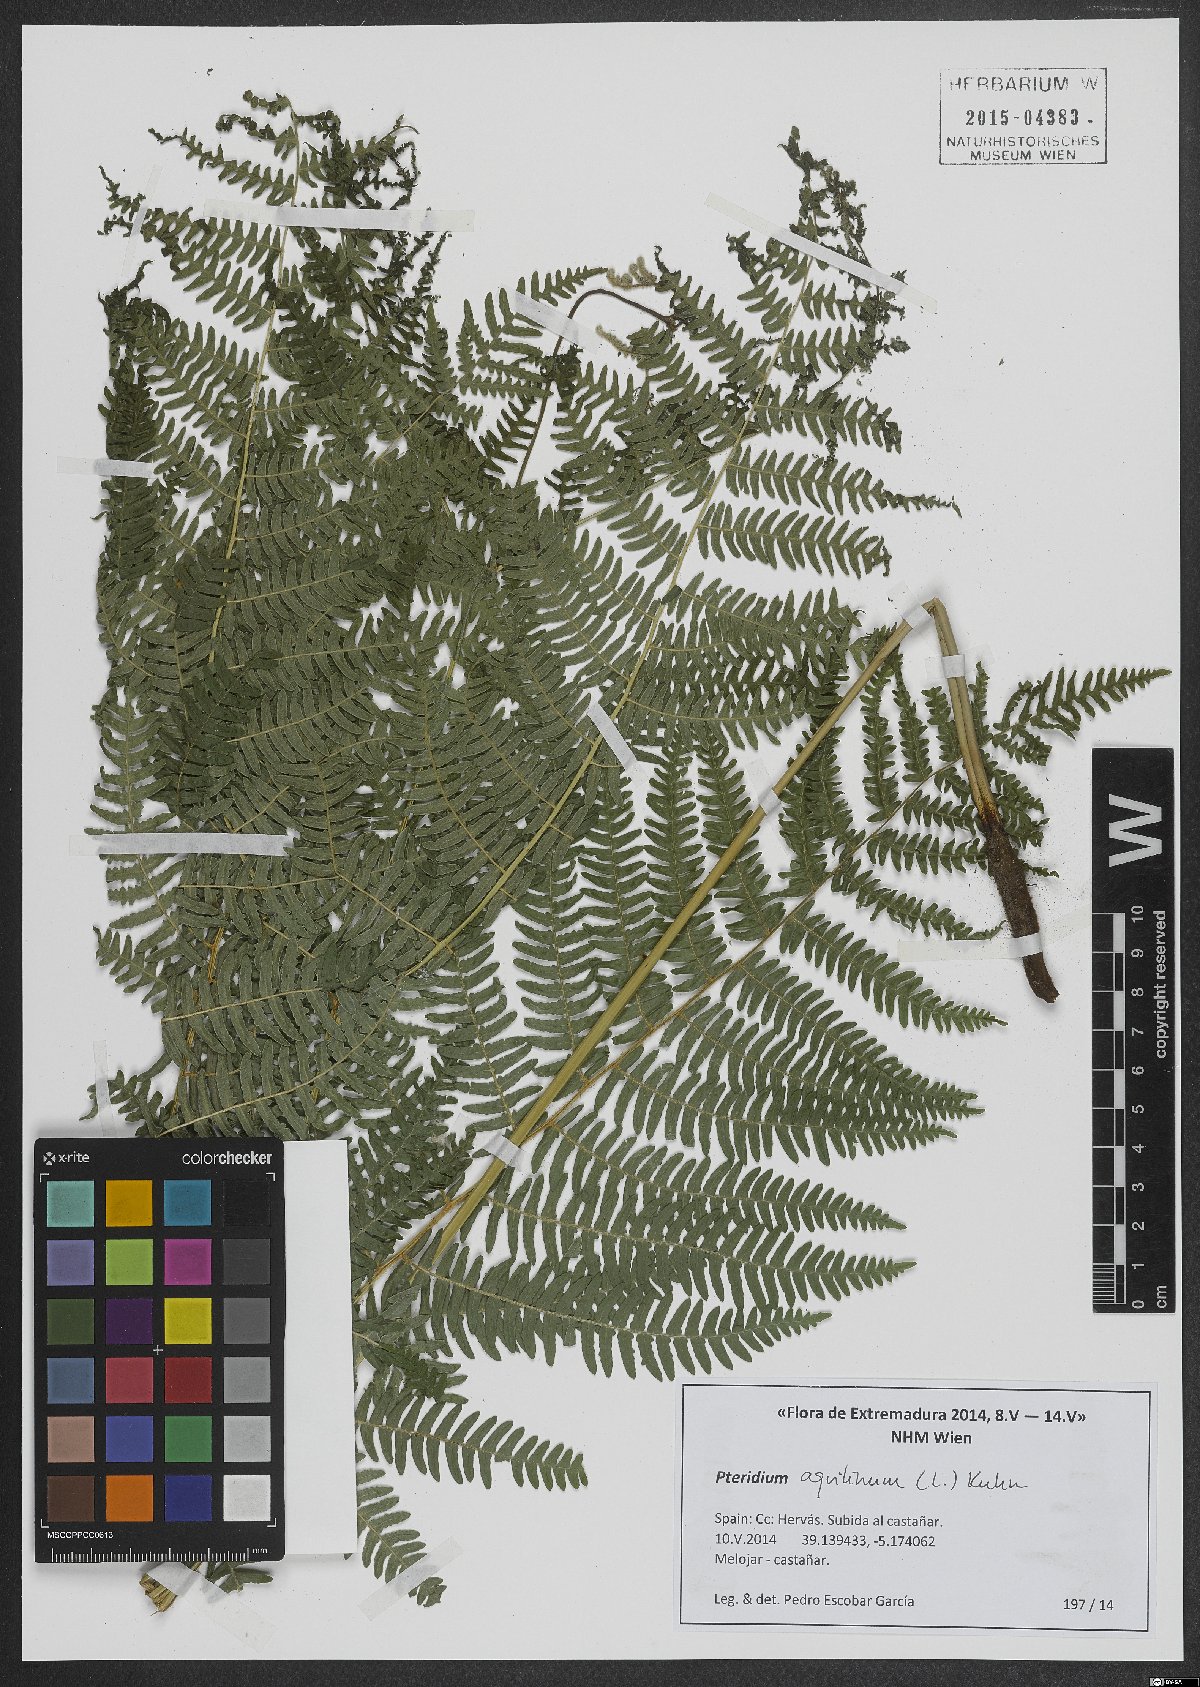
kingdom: Plantae
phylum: Tracheophyta
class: Polypodiopsida
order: Polypodiales
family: Dennstaedtiaceae
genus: Pteridium
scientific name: Pteridium aquilinum
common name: Bracken
